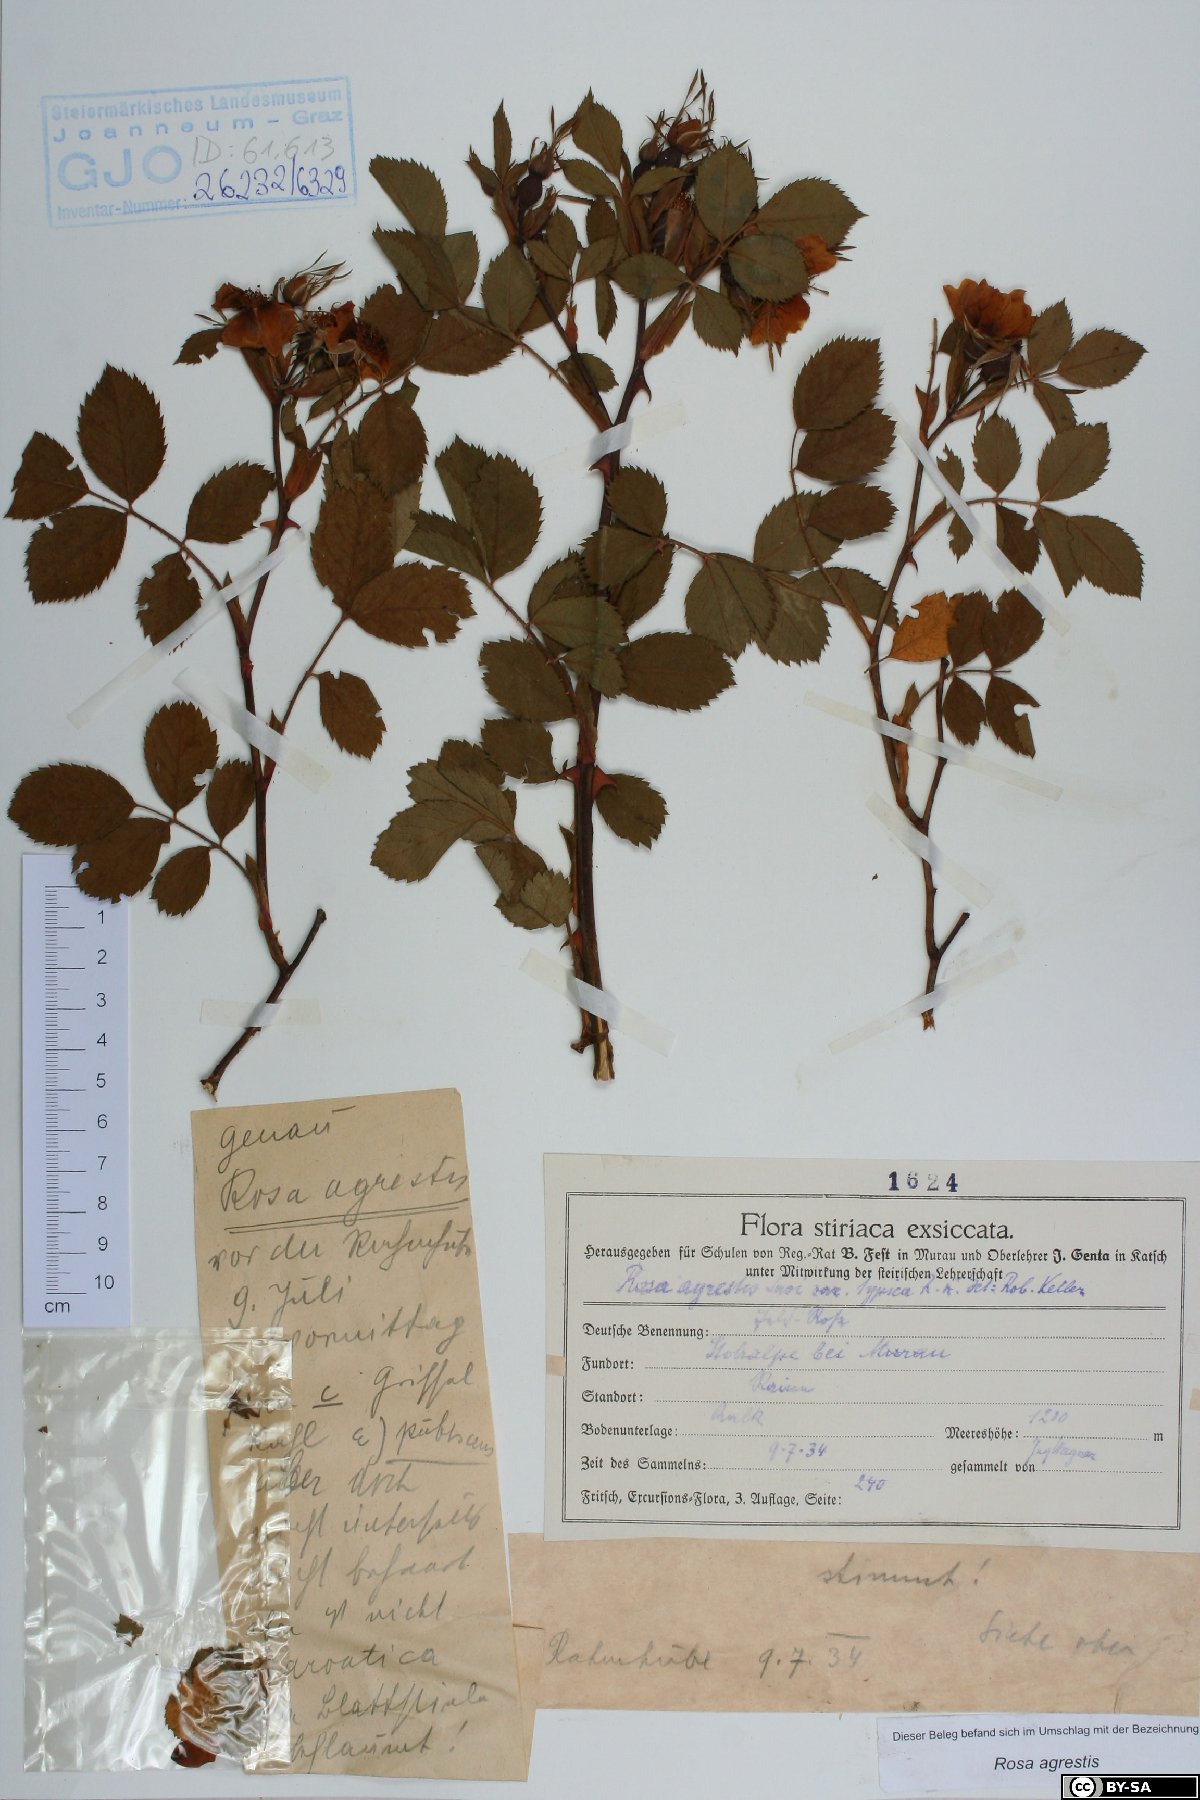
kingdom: Plantae
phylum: Tracheophyta
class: Magnoliopsida
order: Rosales
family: Rosaceae
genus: Rosa
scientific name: Rosa agrestis
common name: Fieldbriar
